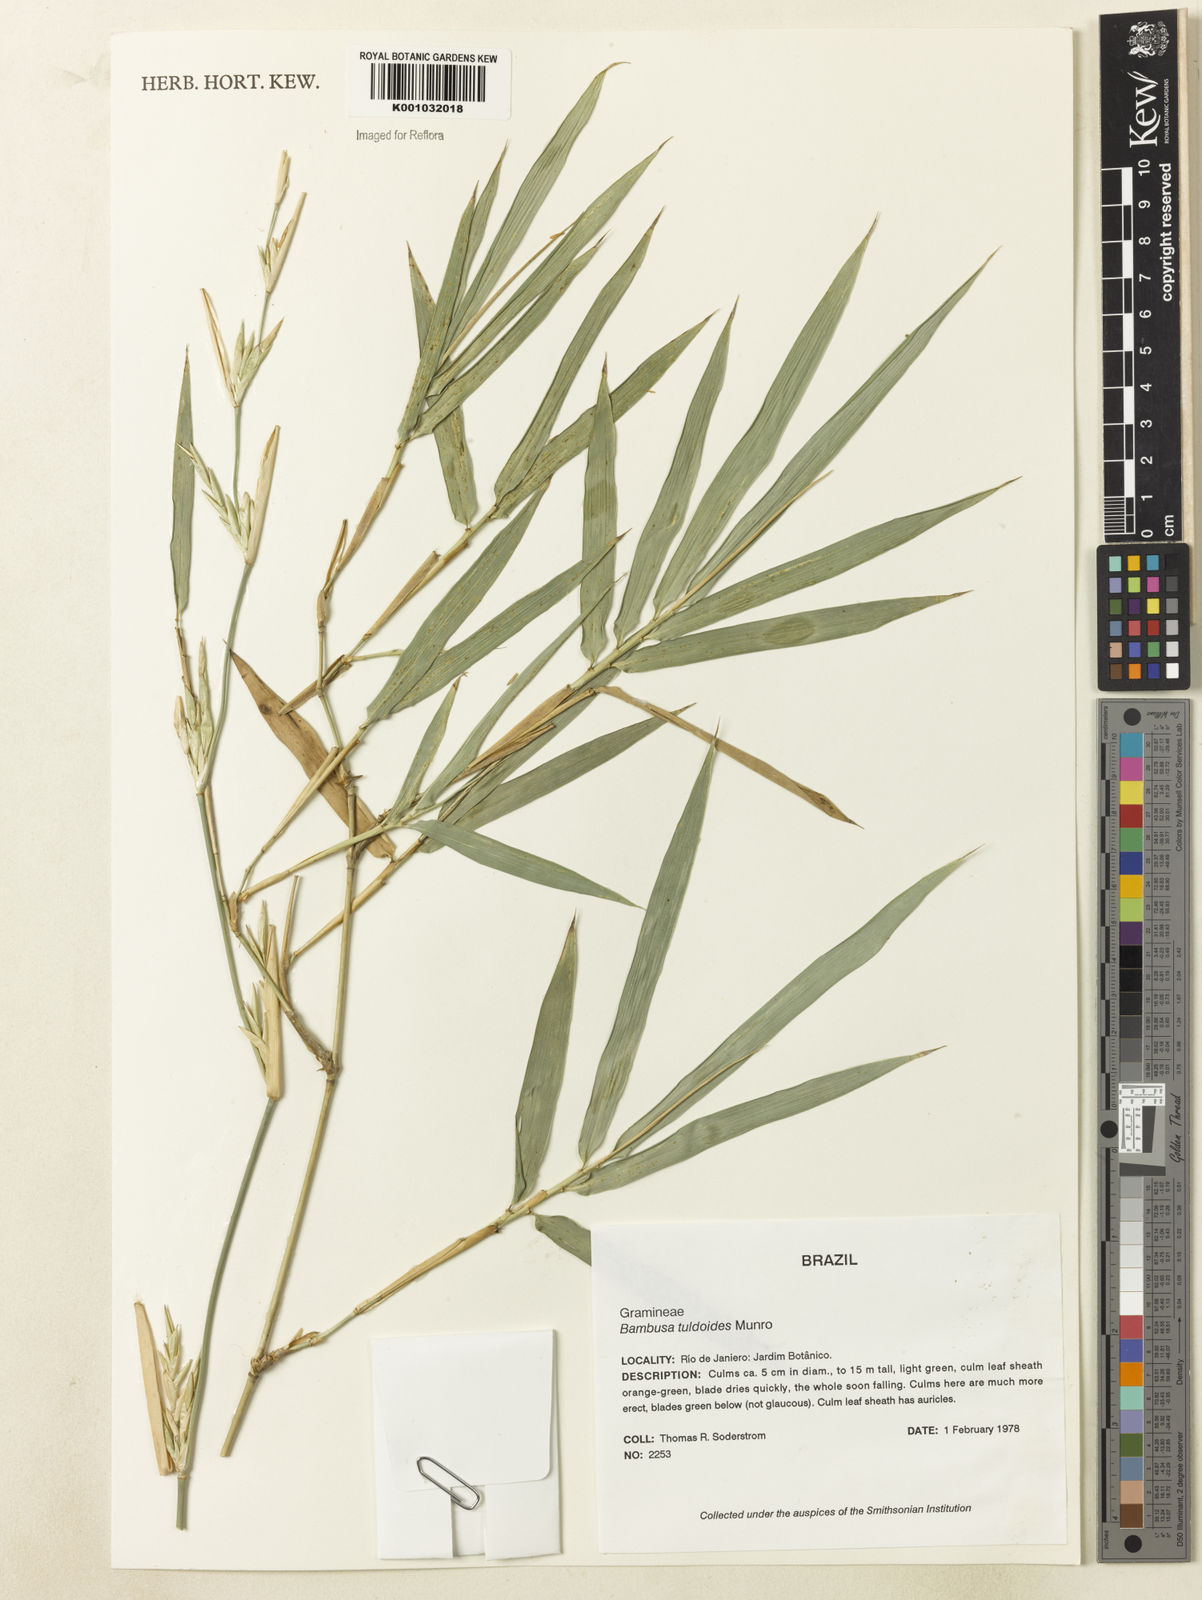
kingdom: Plantae
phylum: Tracheophyta
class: Liliopsida
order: Poales
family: Poaceae
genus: Bambusa
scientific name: Bambusa tuldoides
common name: Verdant bamboo
